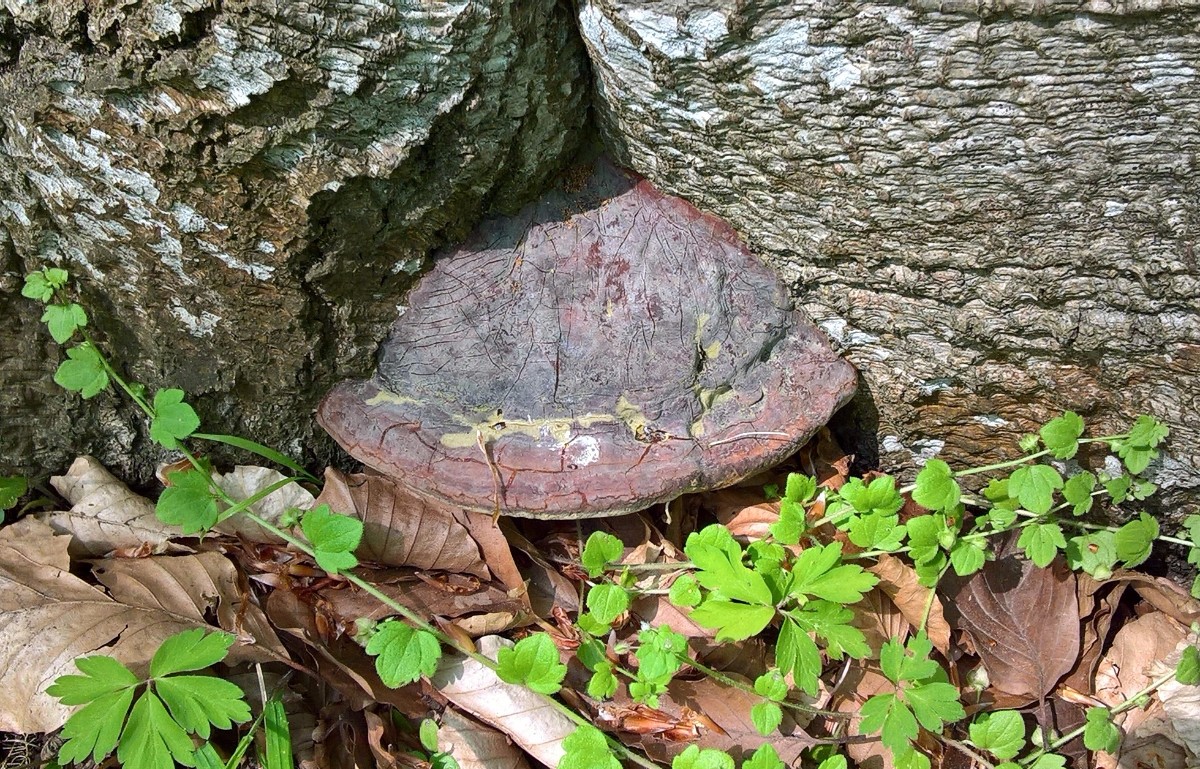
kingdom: Fungi
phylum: Basidiomycota
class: Agaricomycetes
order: Polyporales
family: Polyporaceae
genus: Ganoderma
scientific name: Ganoderma pfeifferi
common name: kobberrød lakporesvamp
